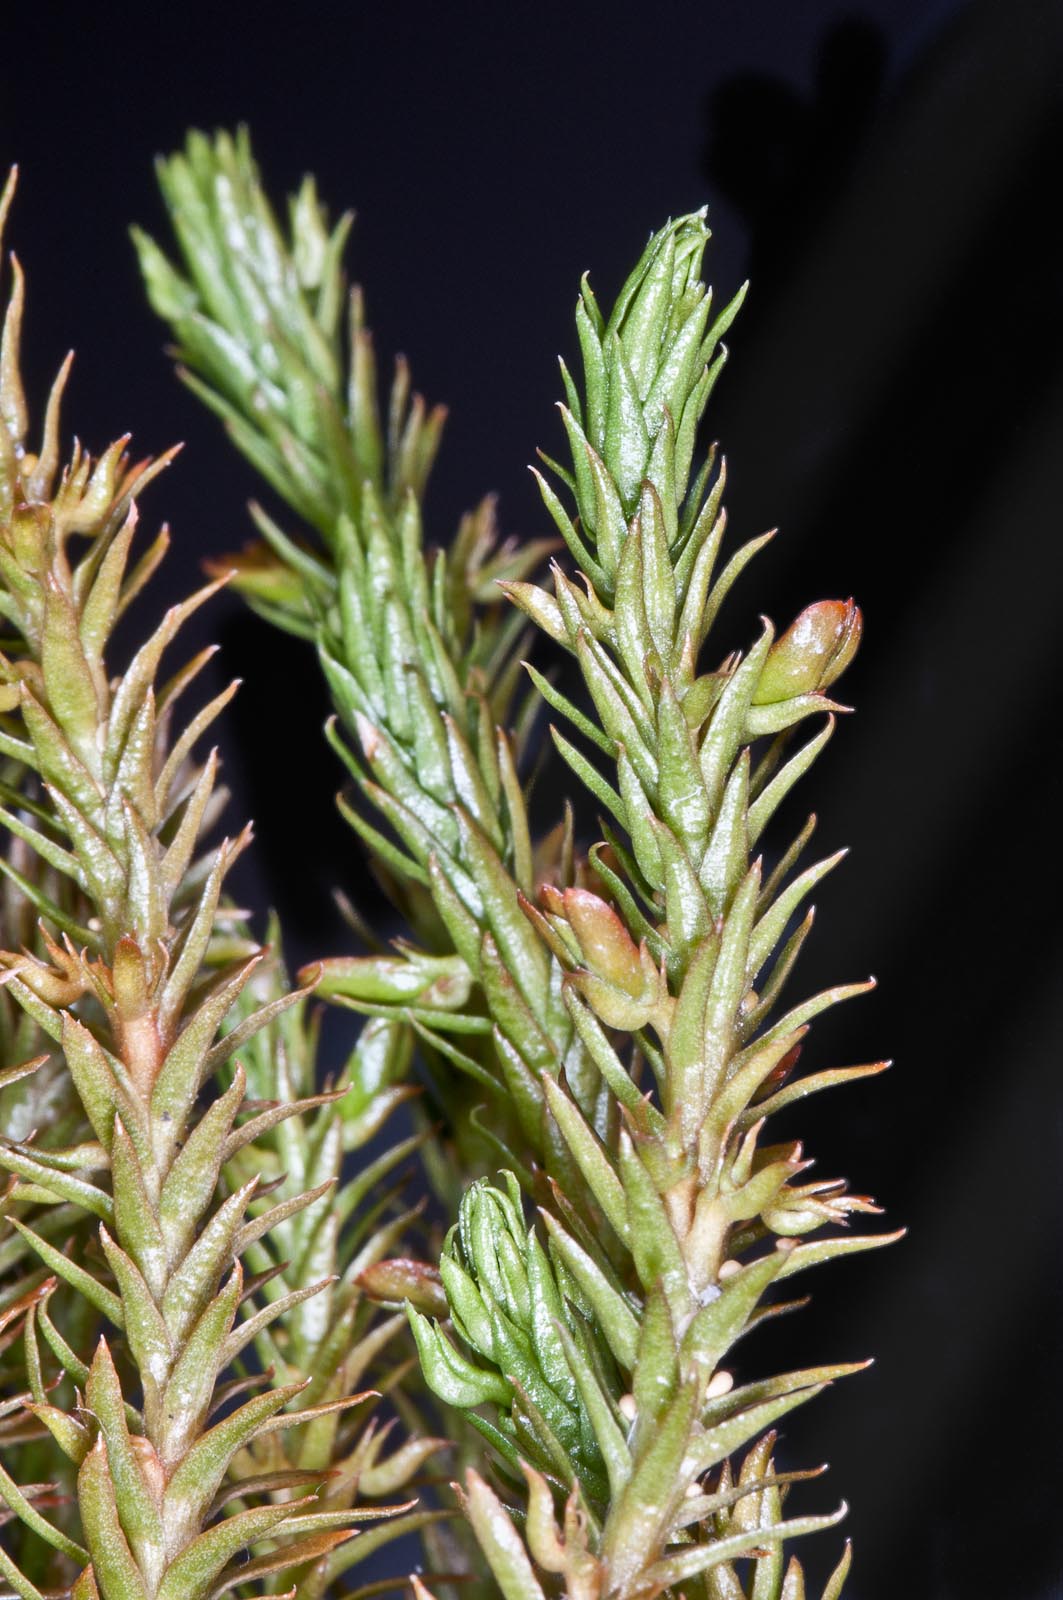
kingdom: Plantae
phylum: Tracheophyta
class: Lycopodiopsida
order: Lycopodiales
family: Lycopodiaceae
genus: Huperzia
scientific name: Huperzia australiana
